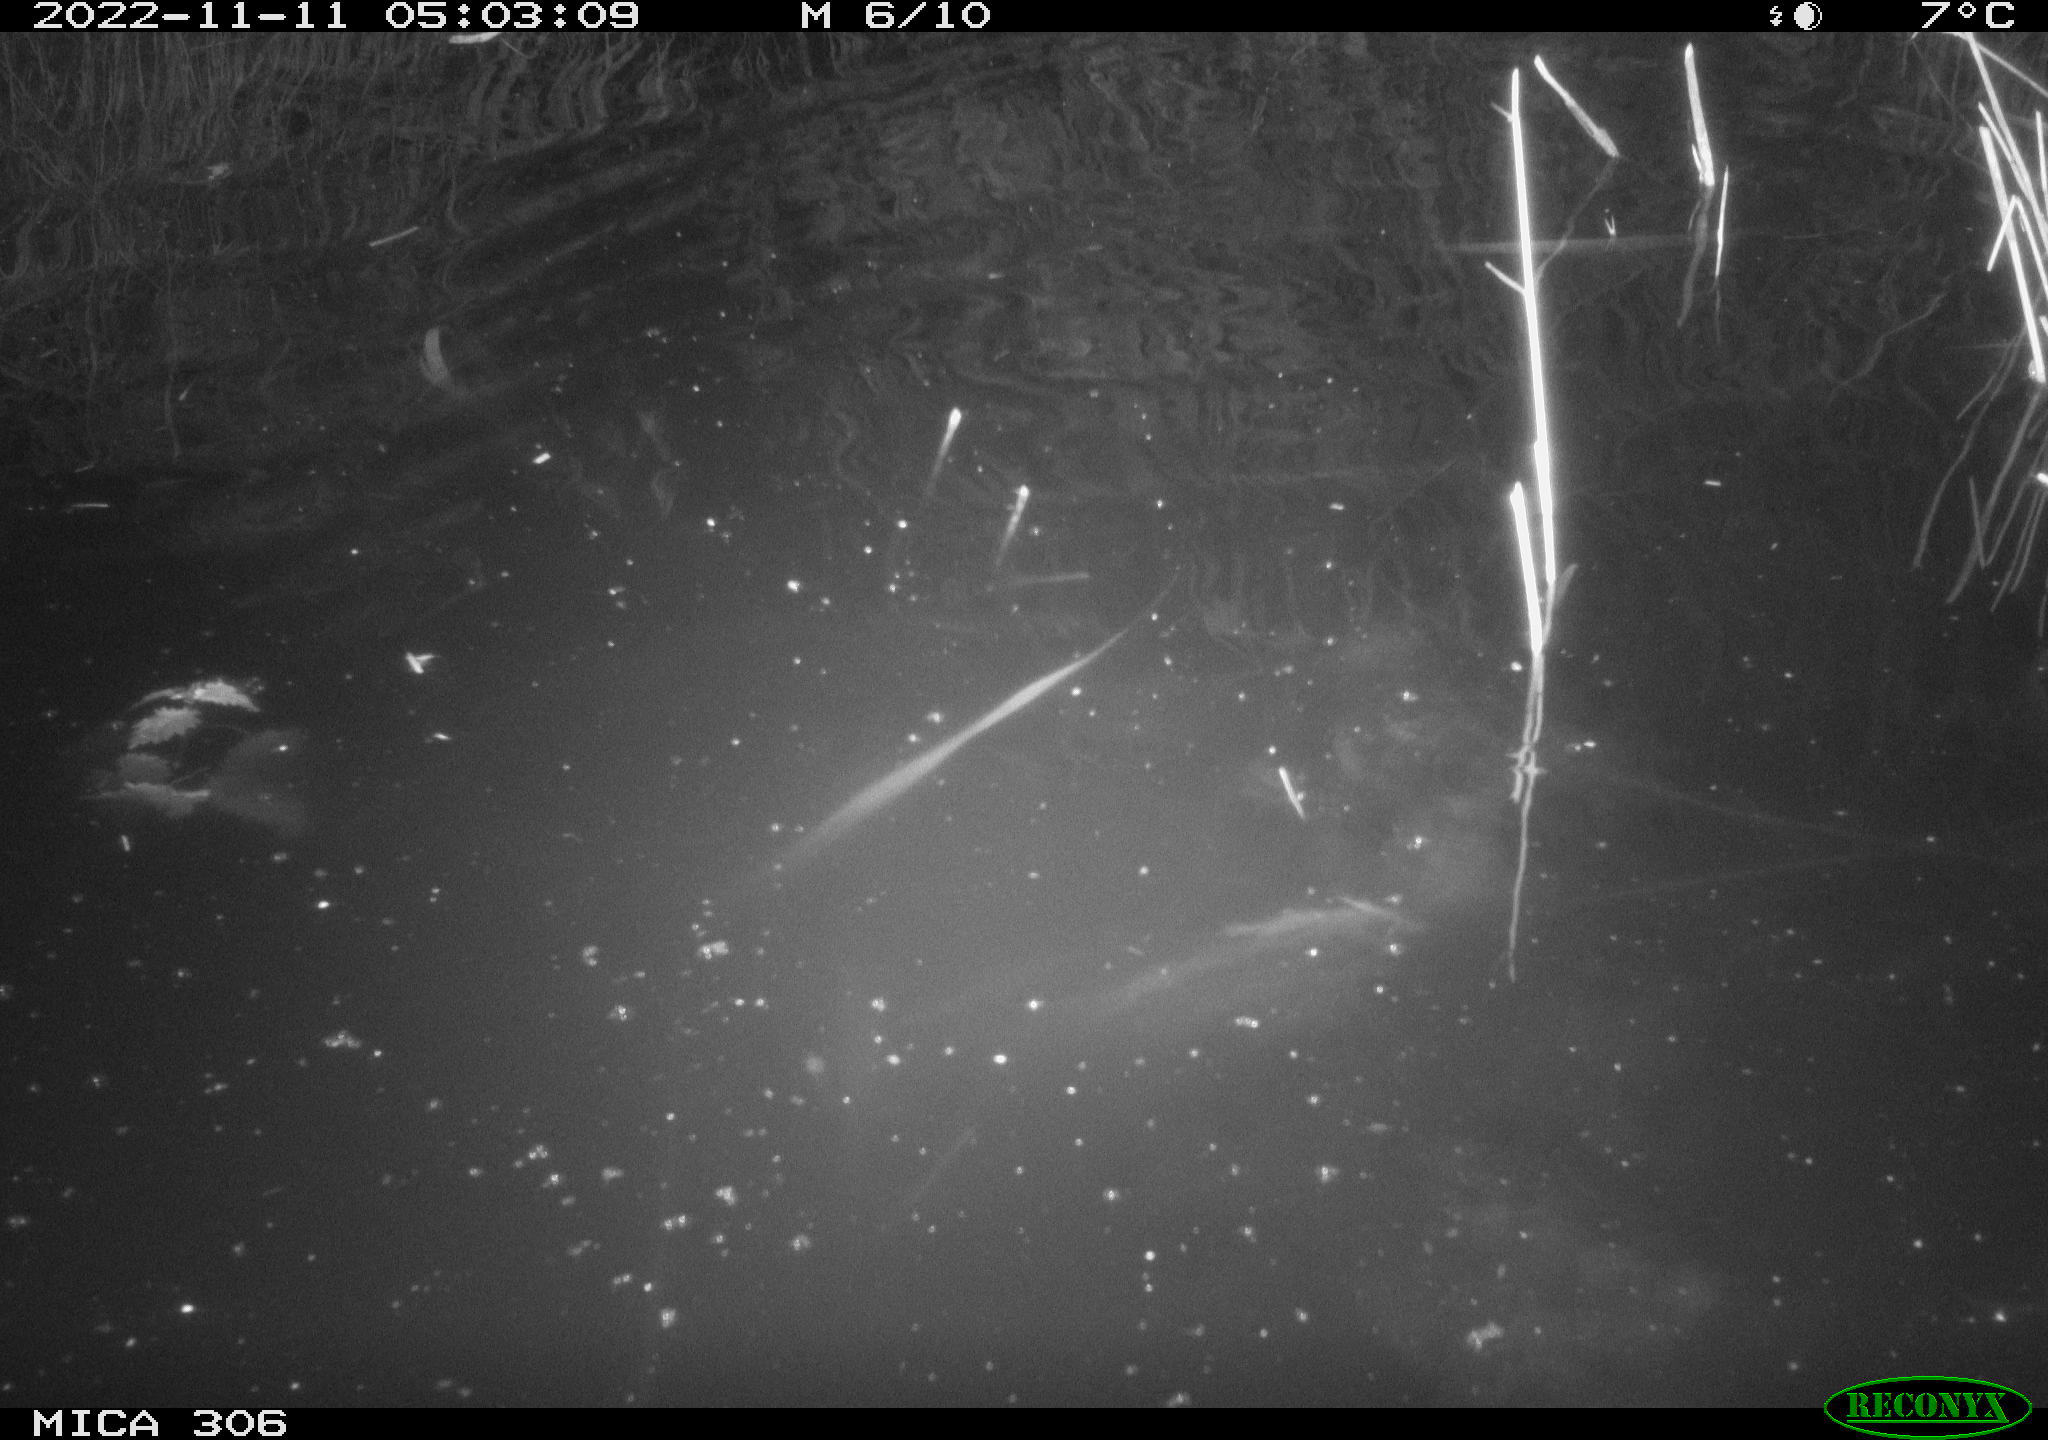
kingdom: Animalia
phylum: Chordata
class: Mammalia
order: Rodentia
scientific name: Rodentia
